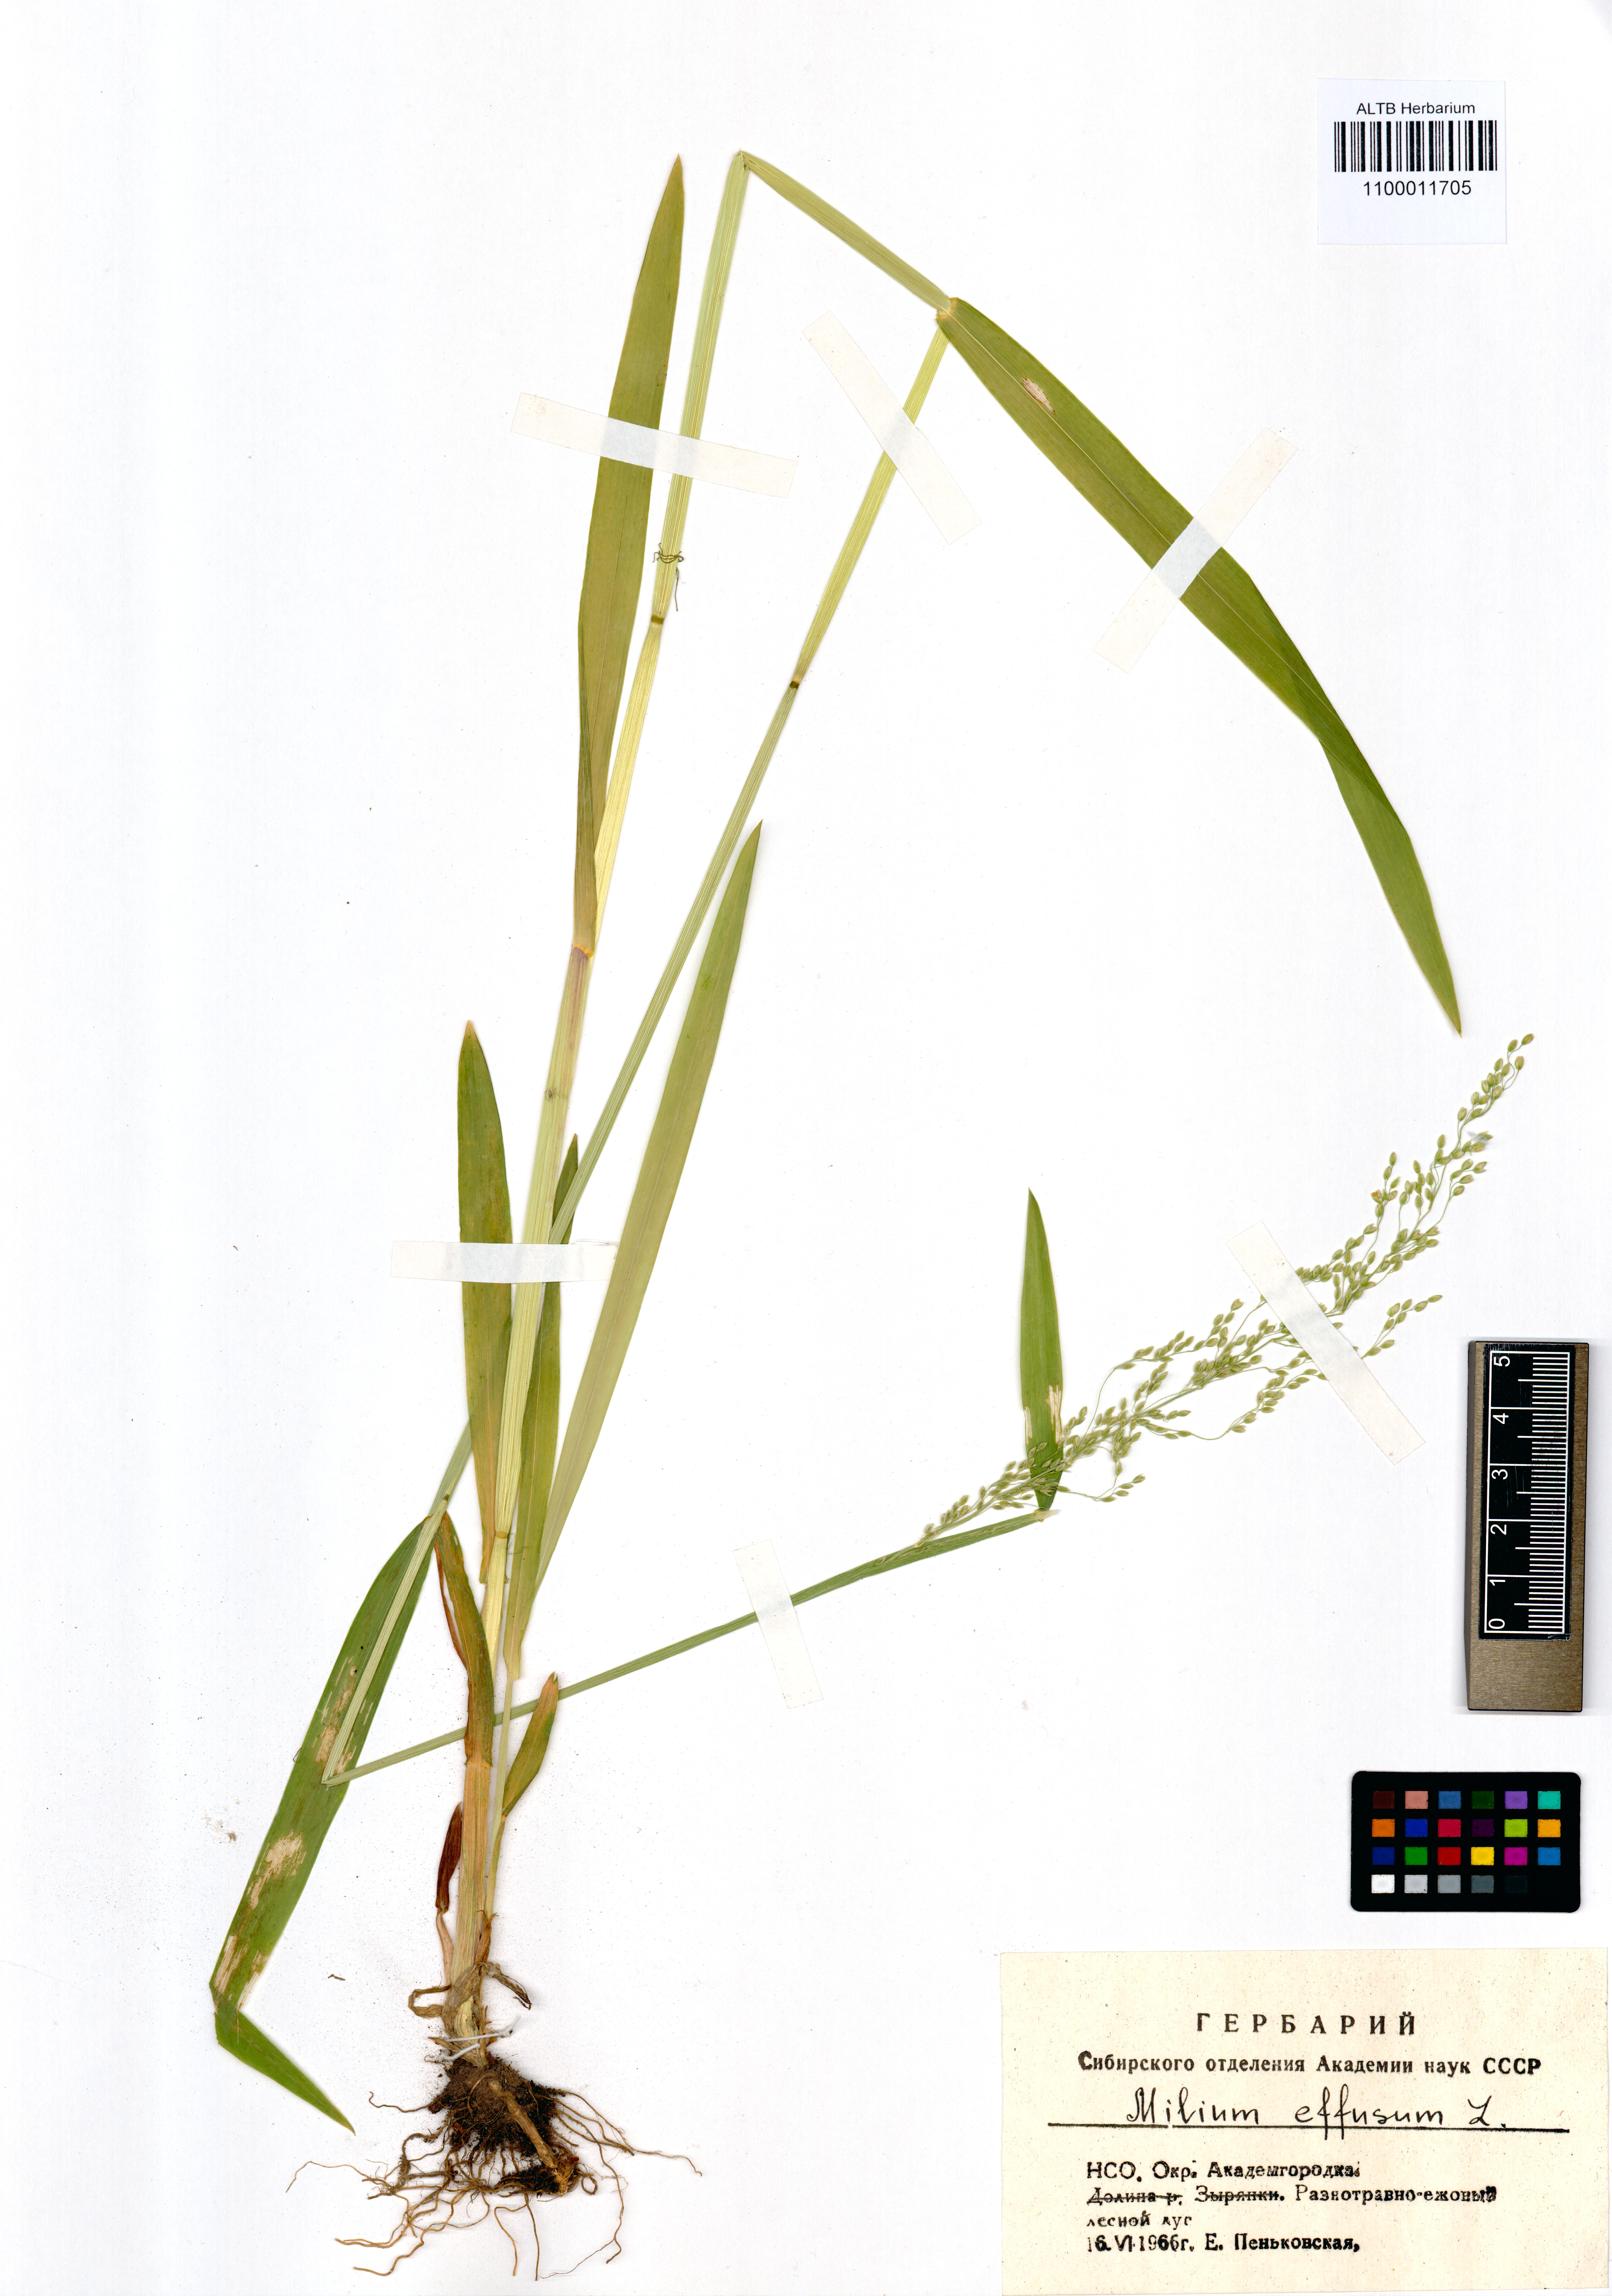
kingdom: Plantae
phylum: Tracheophyta
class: Liliopsida
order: Poales
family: Poaceae
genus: Milium
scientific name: Milium effusum
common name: Wood millet
